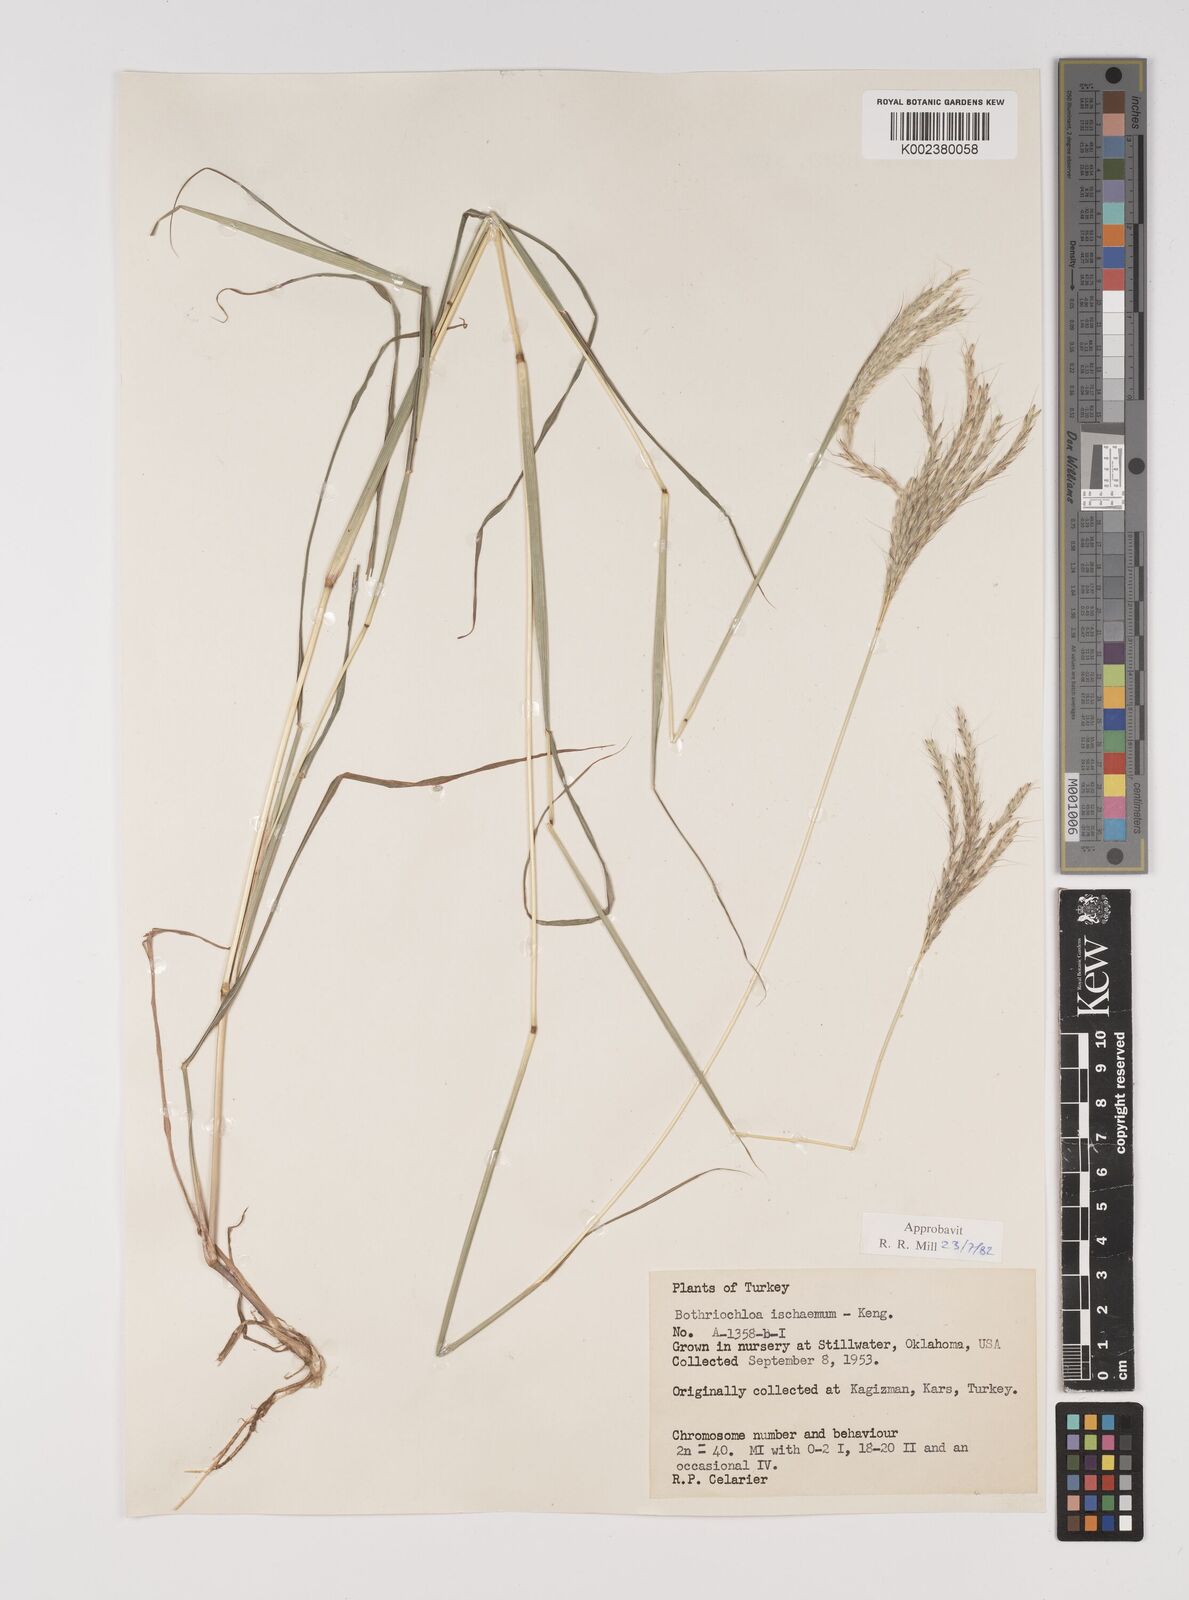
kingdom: Plantae
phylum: Tracheophyta
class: Liliopsida
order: Poales
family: Poaceae
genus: Bothriochloa
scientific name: Bothriochloa ischaemum
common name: Yellow bluestem
